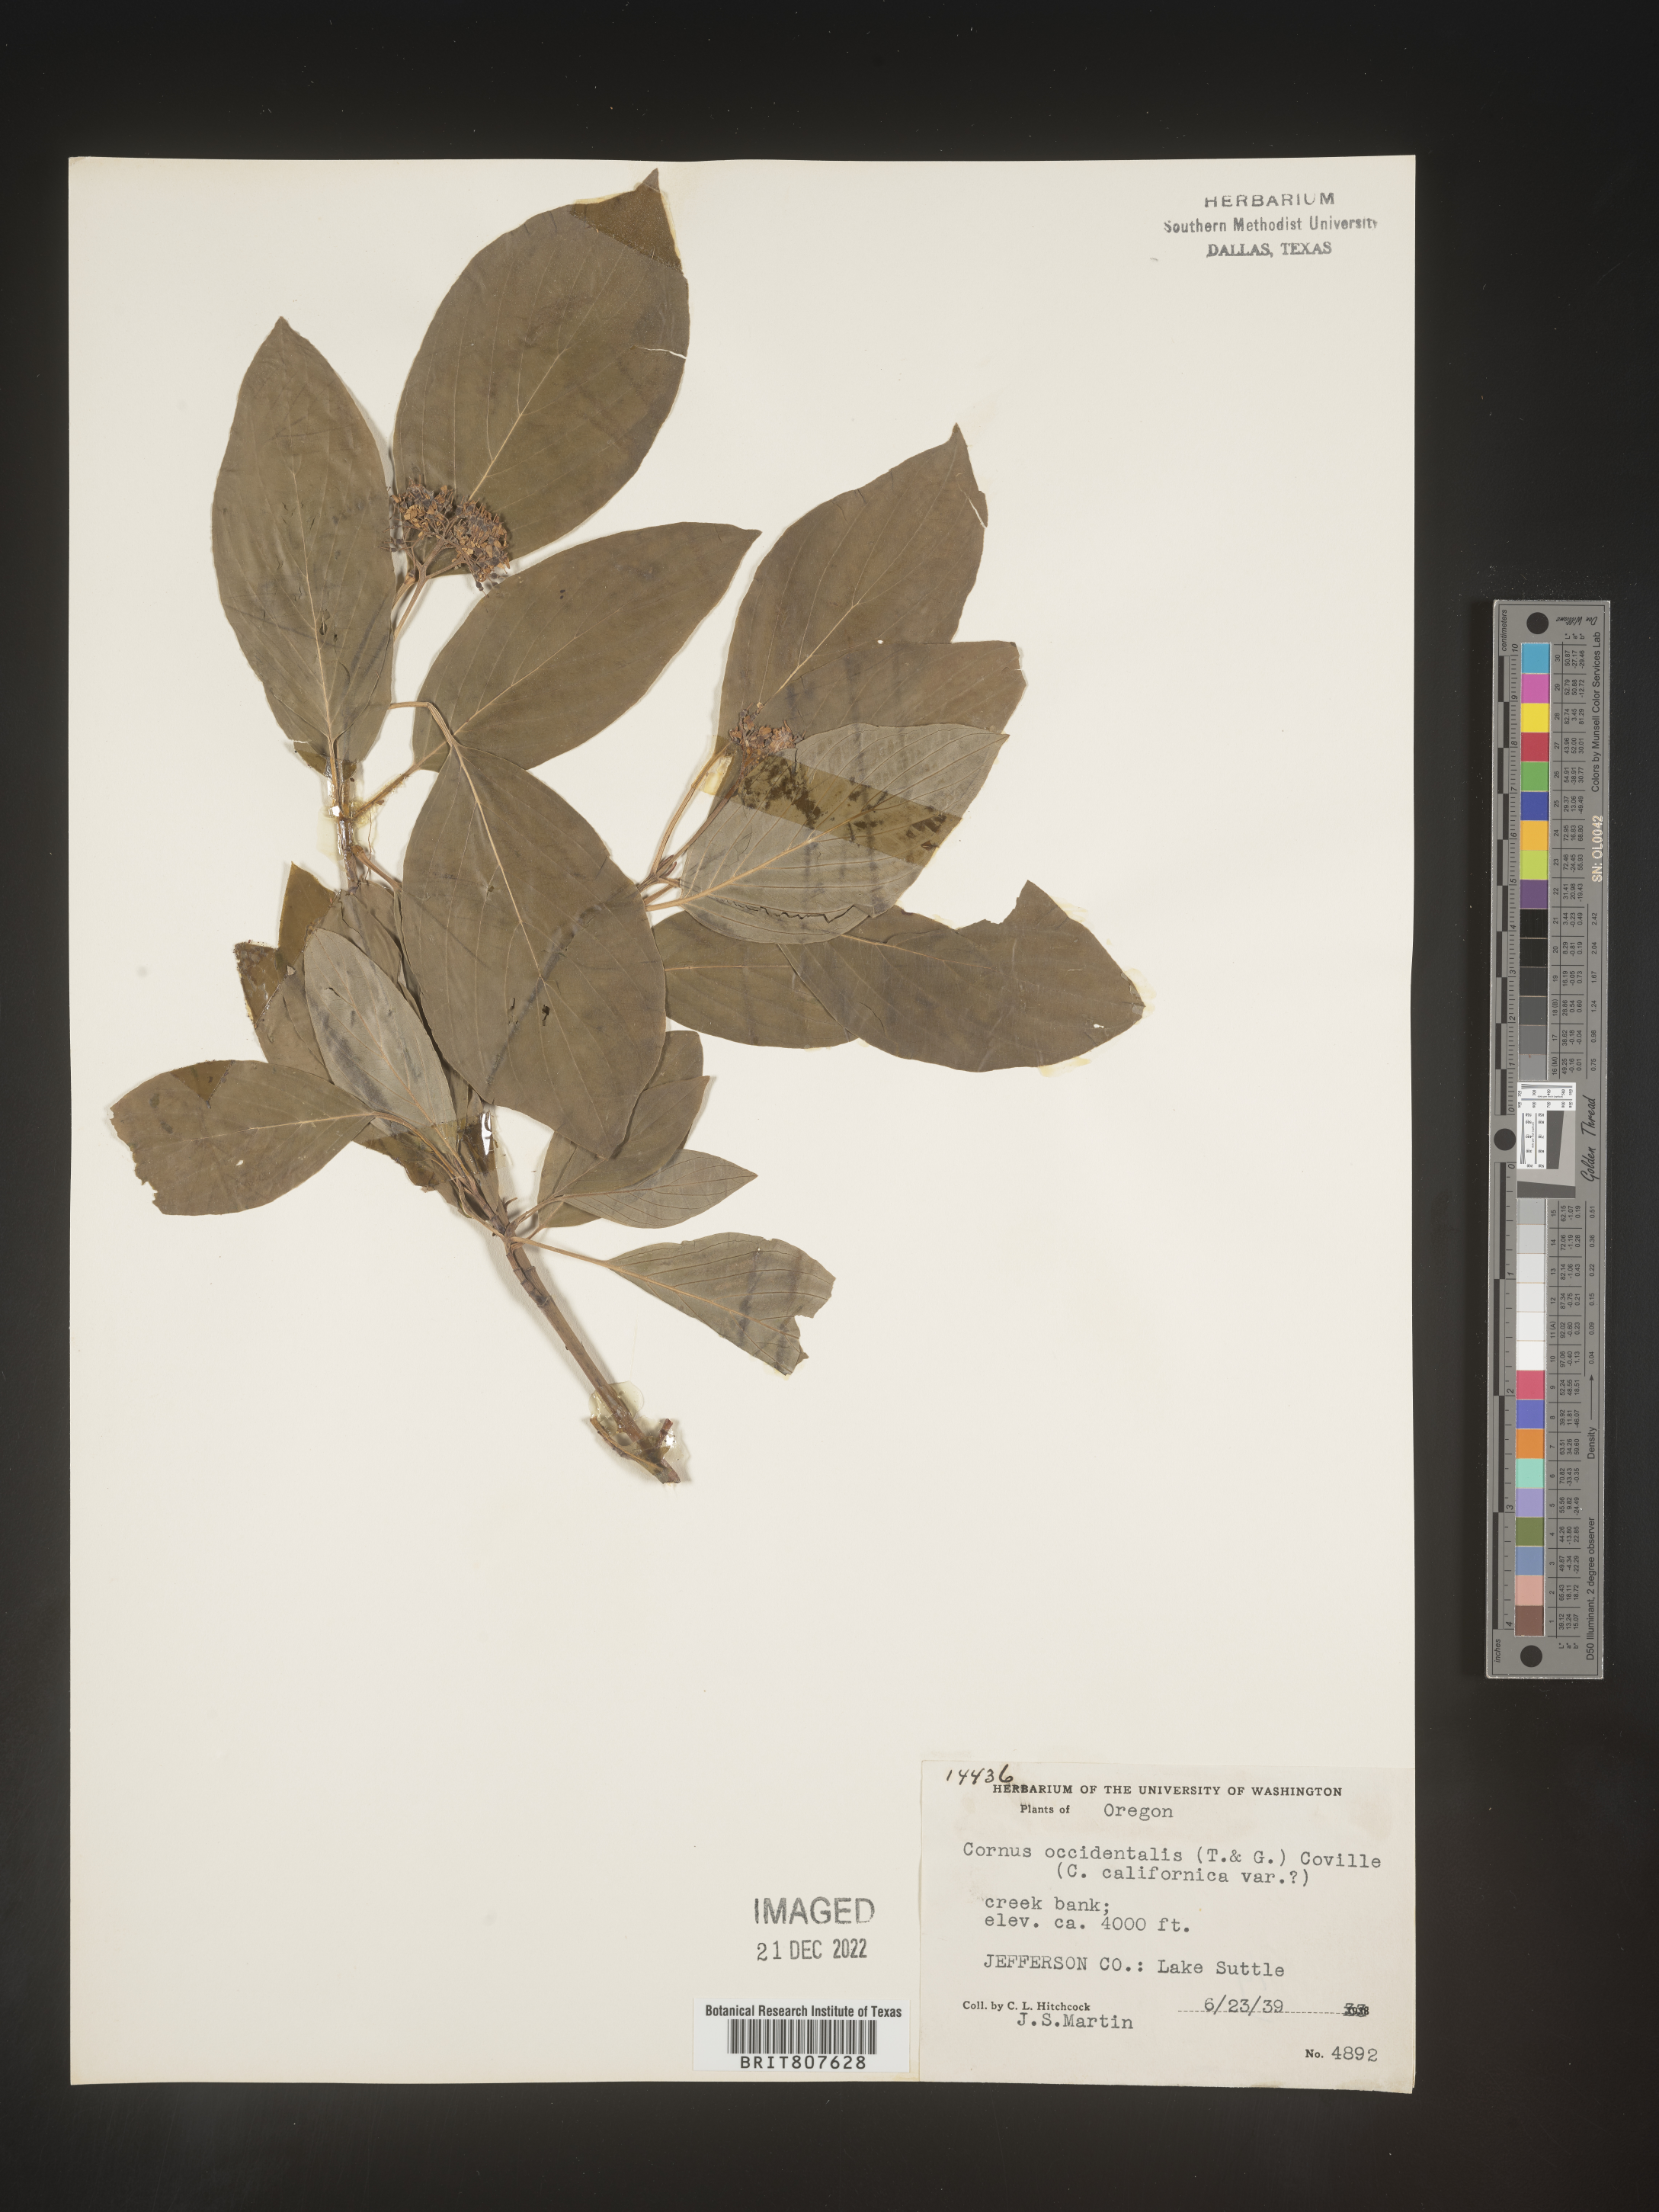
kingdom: Plantae
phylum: Tracheophyta
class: Magnoliopsida
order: Cornales
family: Cornaceae
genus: Cornus
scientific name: Cornus
